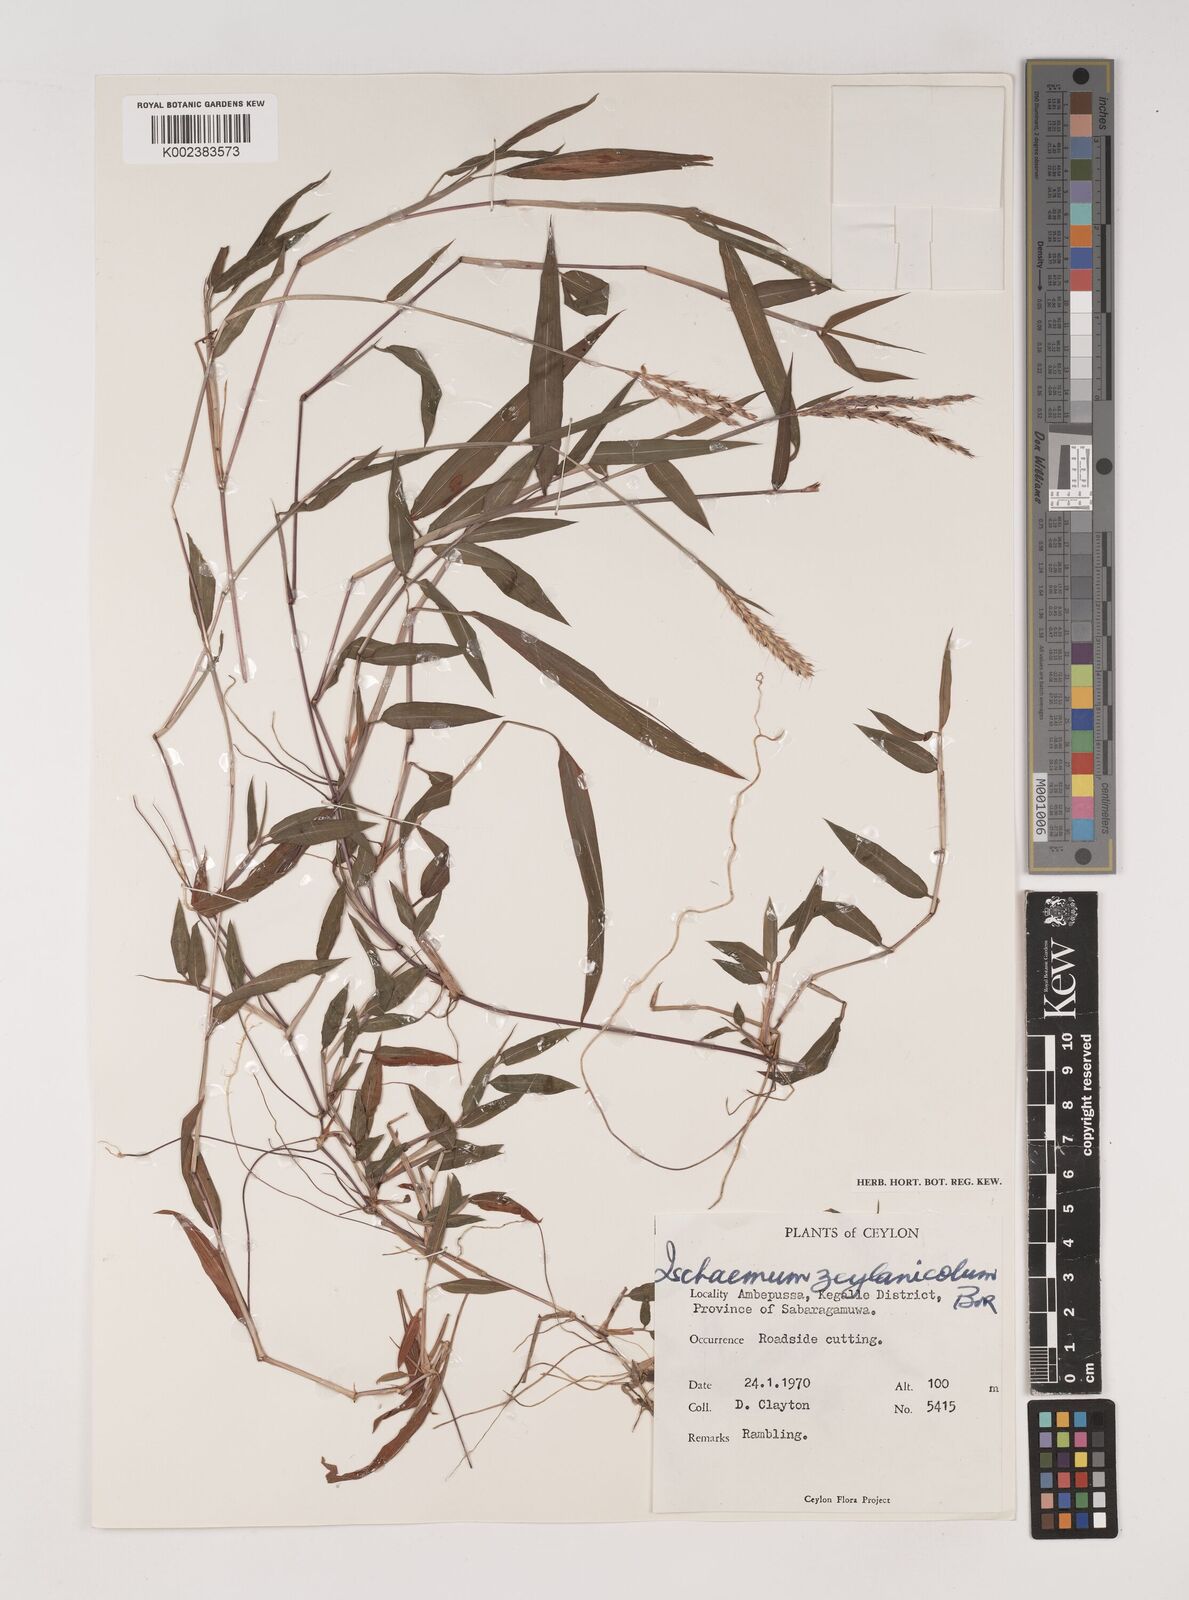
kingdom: Plantae
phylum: Tracheophyta
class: Liliopsida
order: Poales
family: Poaceae
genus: Ischaemum
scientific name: Ischaemum zeylanicola
